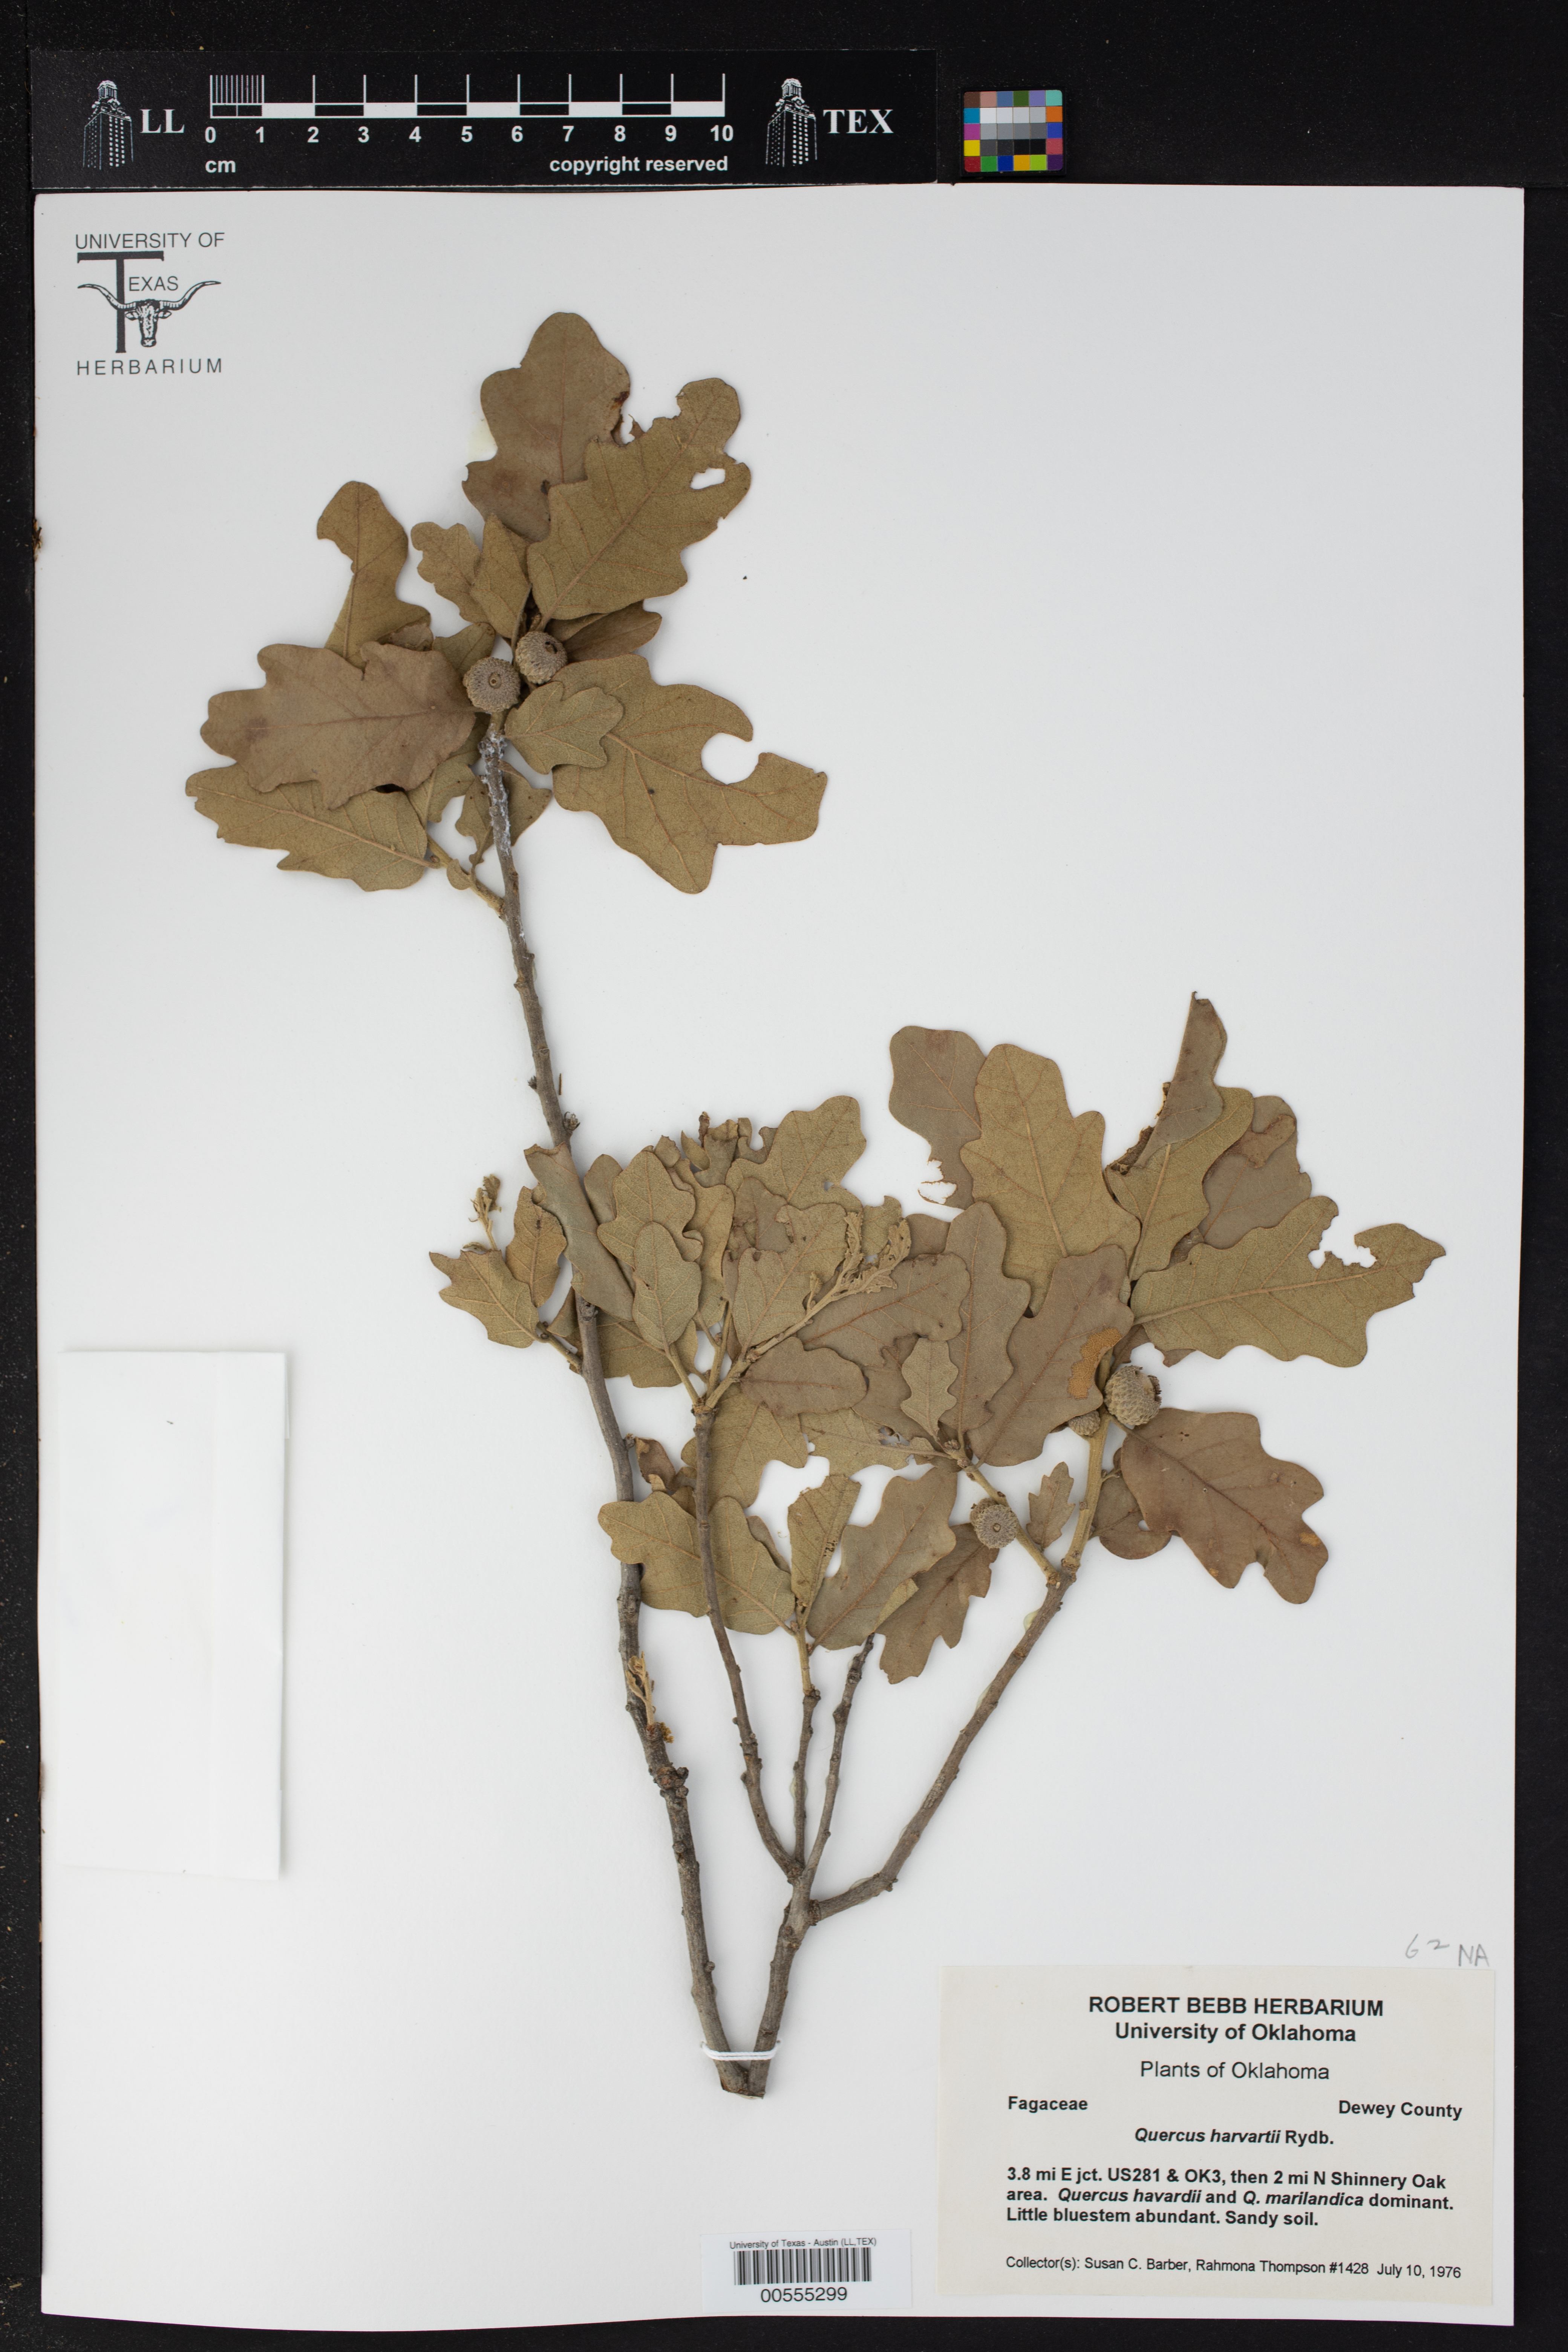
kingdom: Plantae
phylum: Tracheophyta
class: Magnoliopsida
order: Fagales
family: Fagaceae
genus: Quercus
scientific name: Quercus havardii
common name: Shinnery oak
